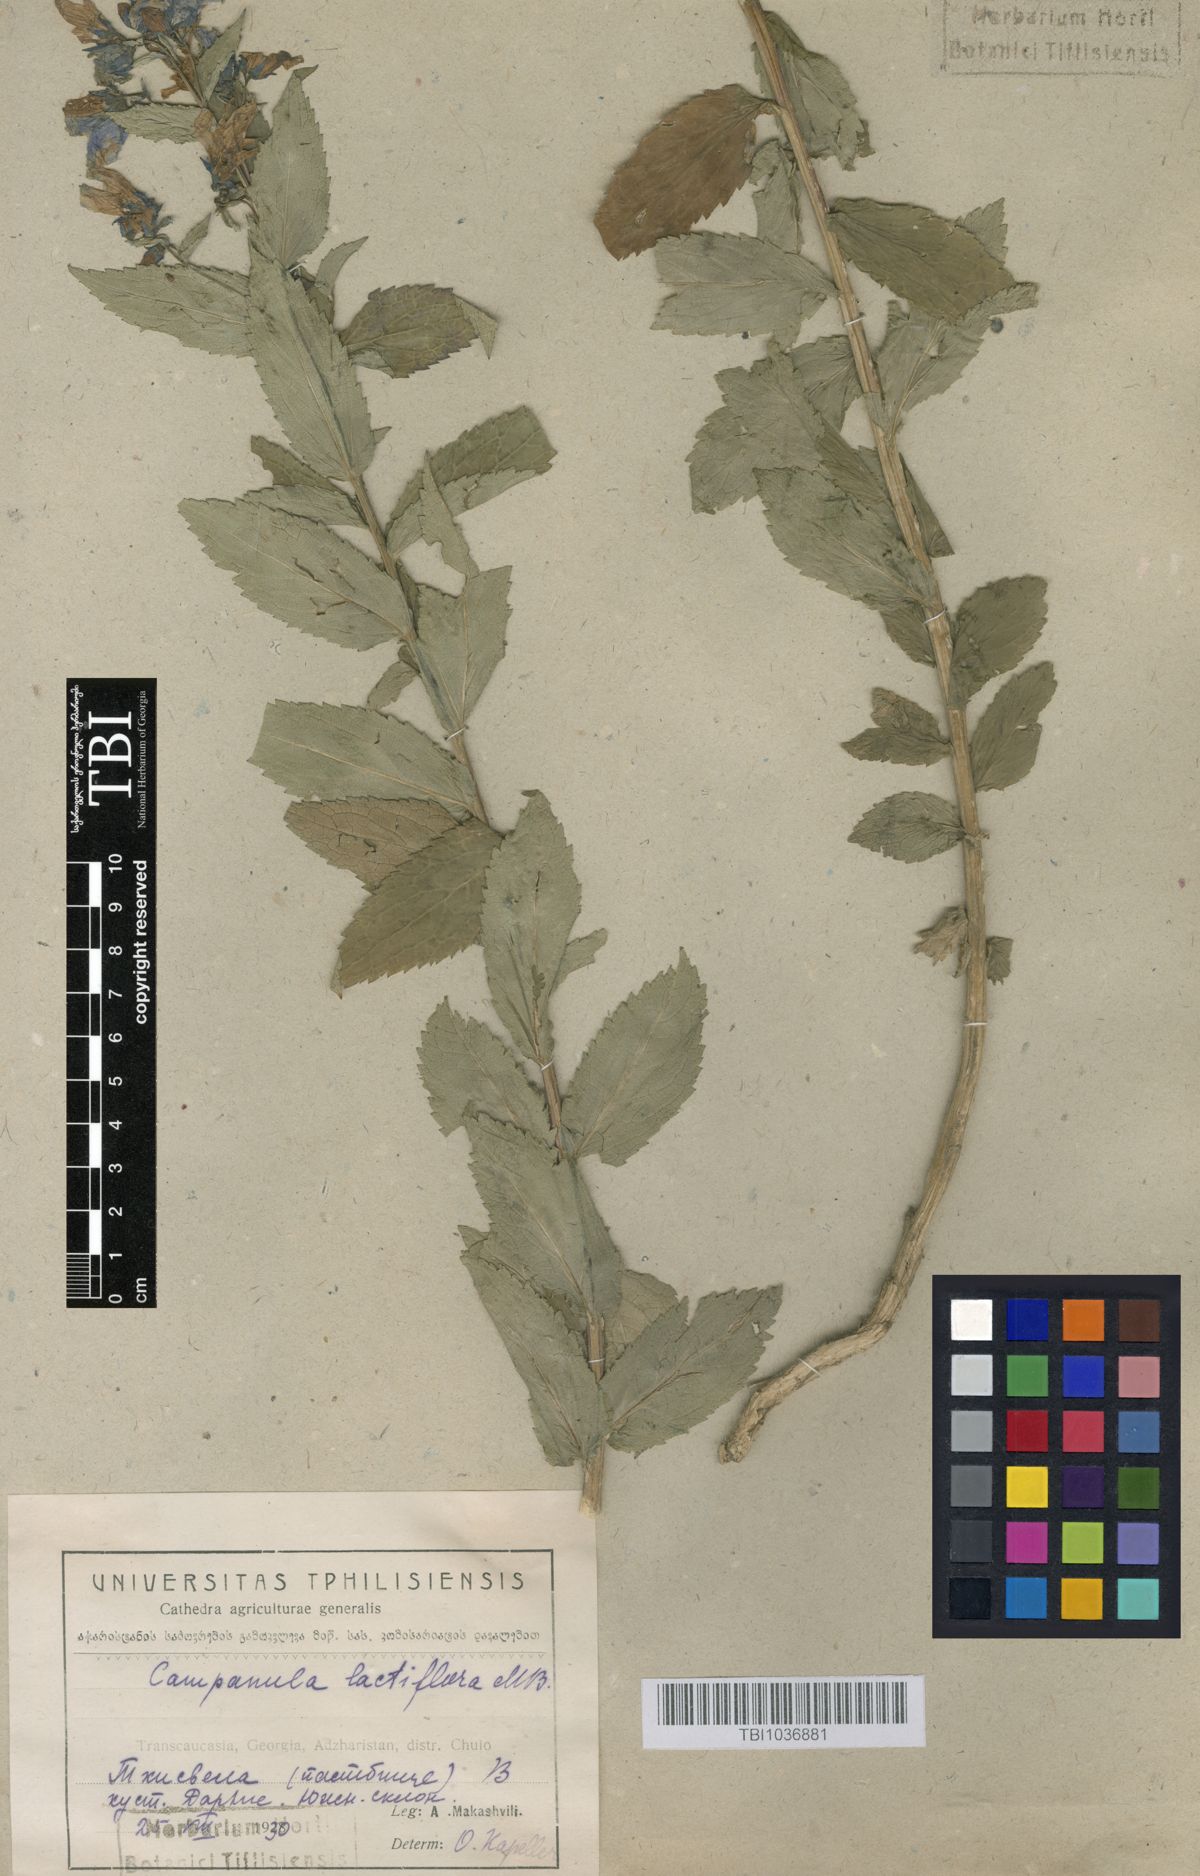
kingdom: Plantae
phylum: Tracheophyta
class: Magnoliopsida
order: Asterales
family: Campanulaceae
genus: Campanula
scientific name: Campanula lactiflora
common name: Milky bellflower
